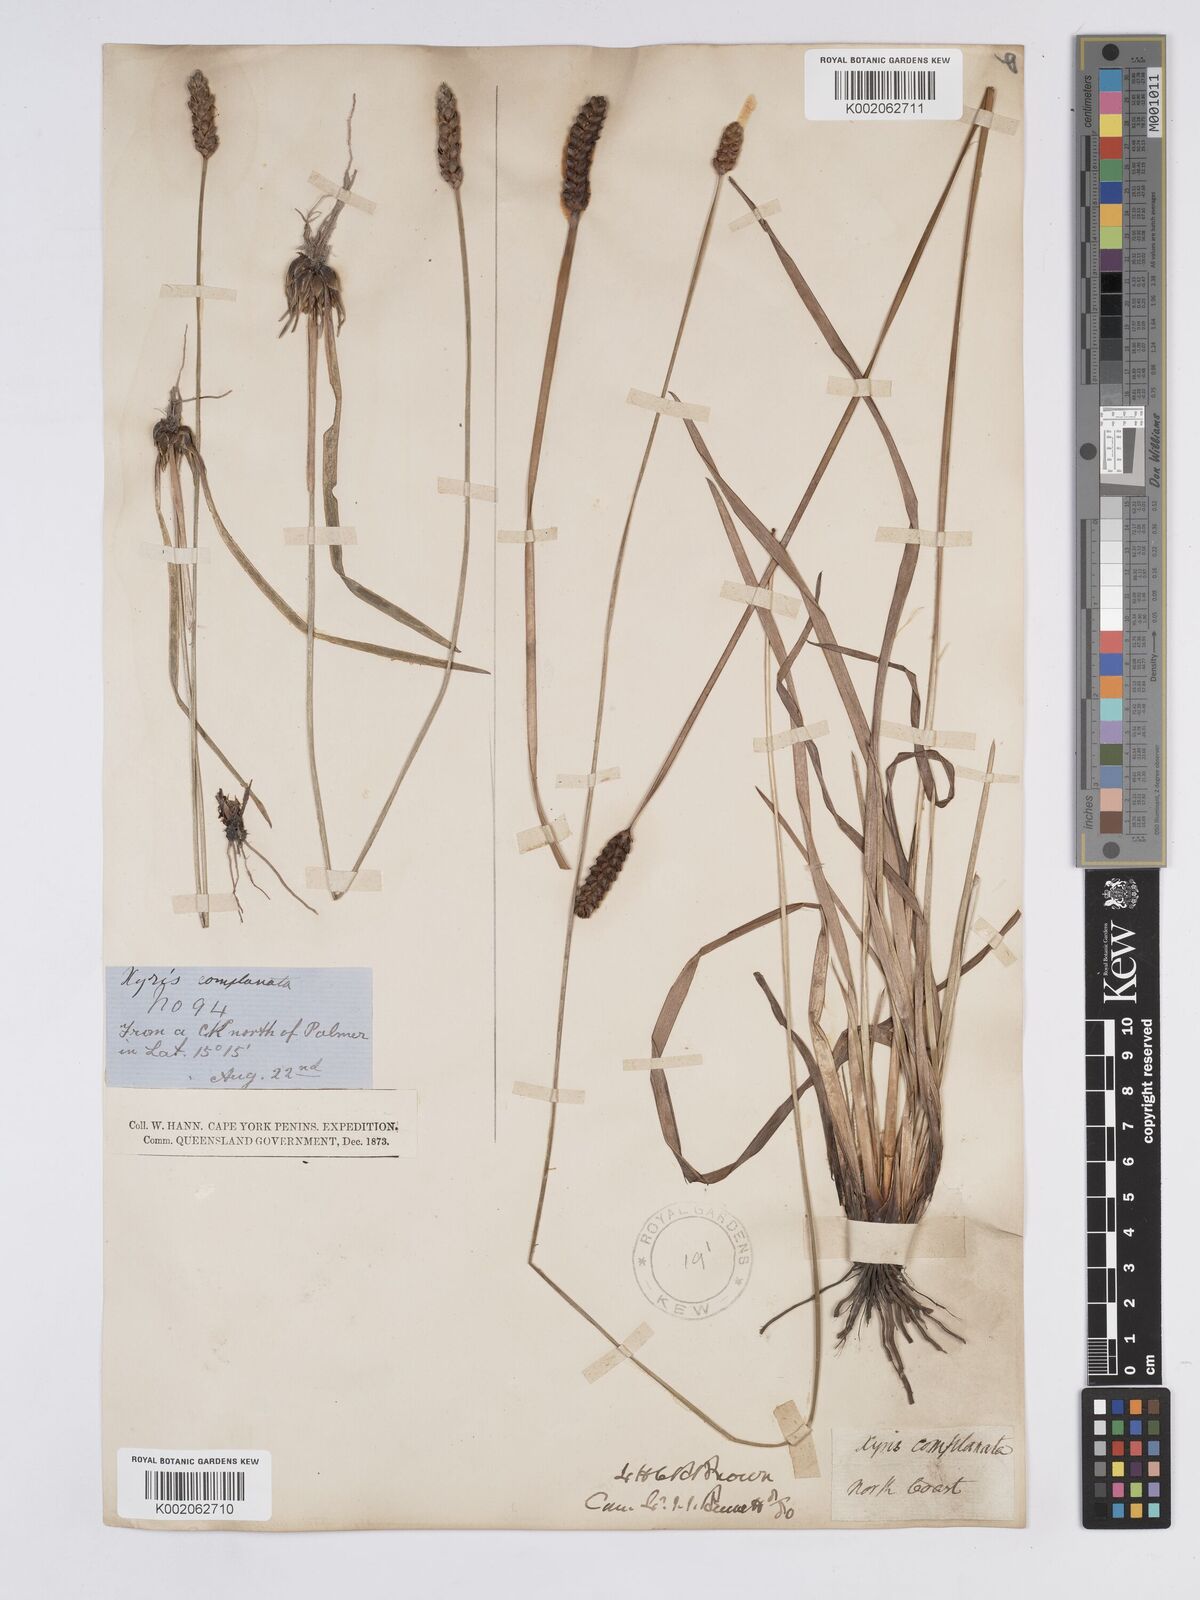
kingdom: Plantae
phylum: Tracheophyta
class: Liliopsida
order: Poales
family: Xyridaceae
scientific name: Xyridaceae
